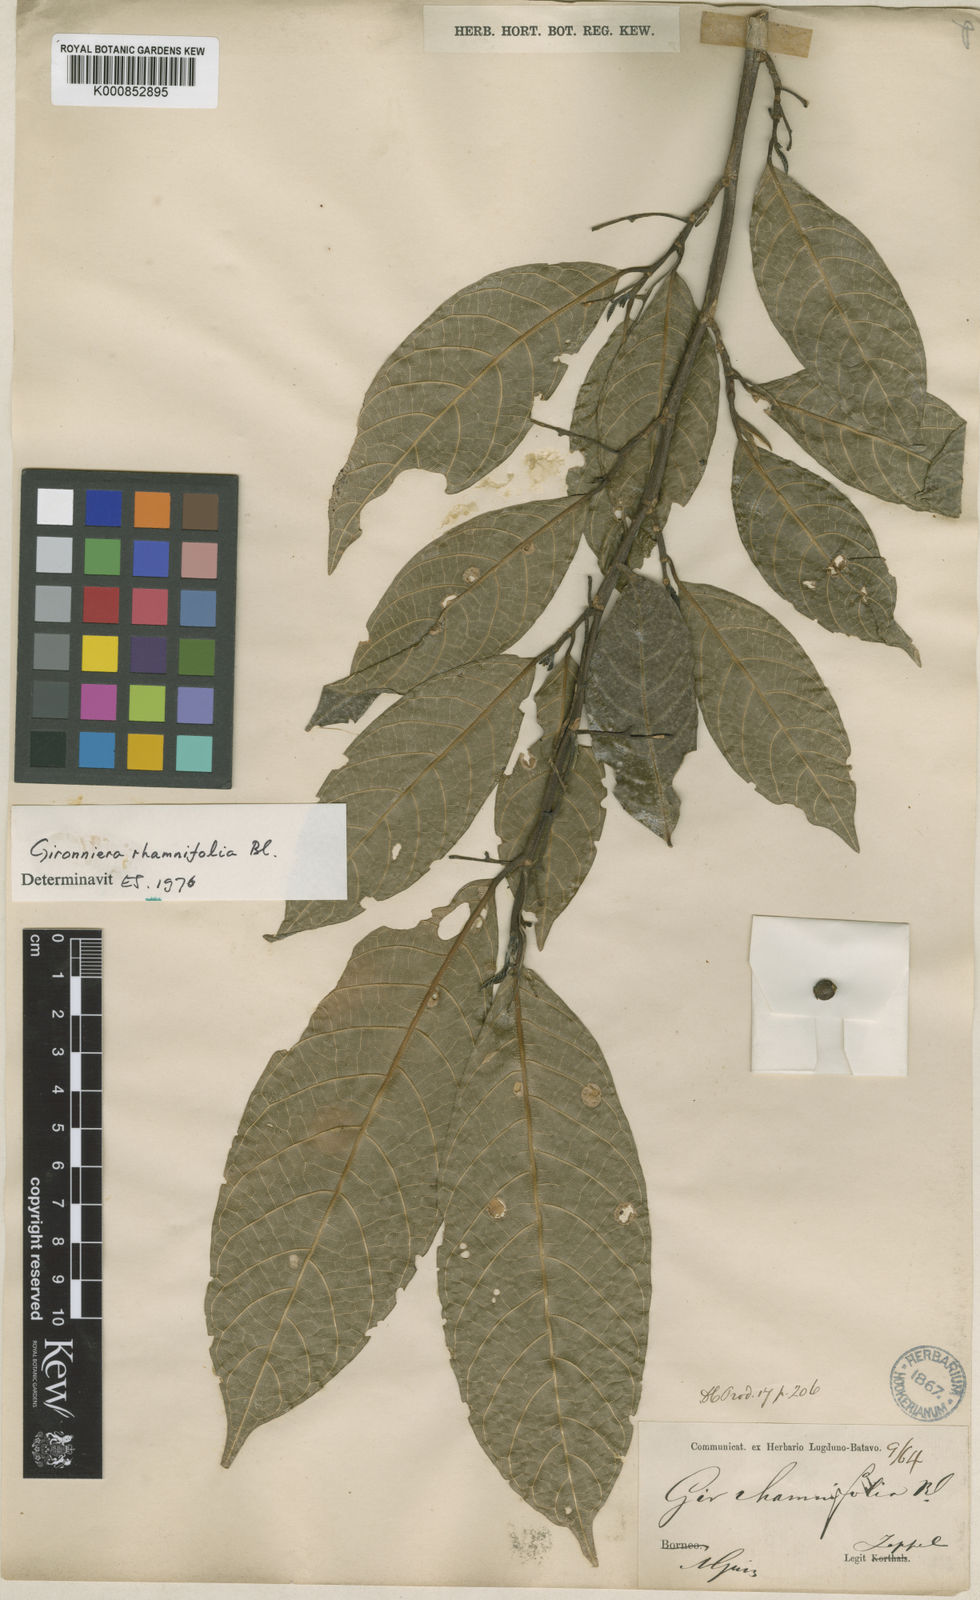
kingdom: Plantae
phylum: Tracheophyta
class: Magnoliopsida
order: Rosales
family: Cannabaceae
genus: Gironniera
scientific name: Gironniera rhamnifolia
